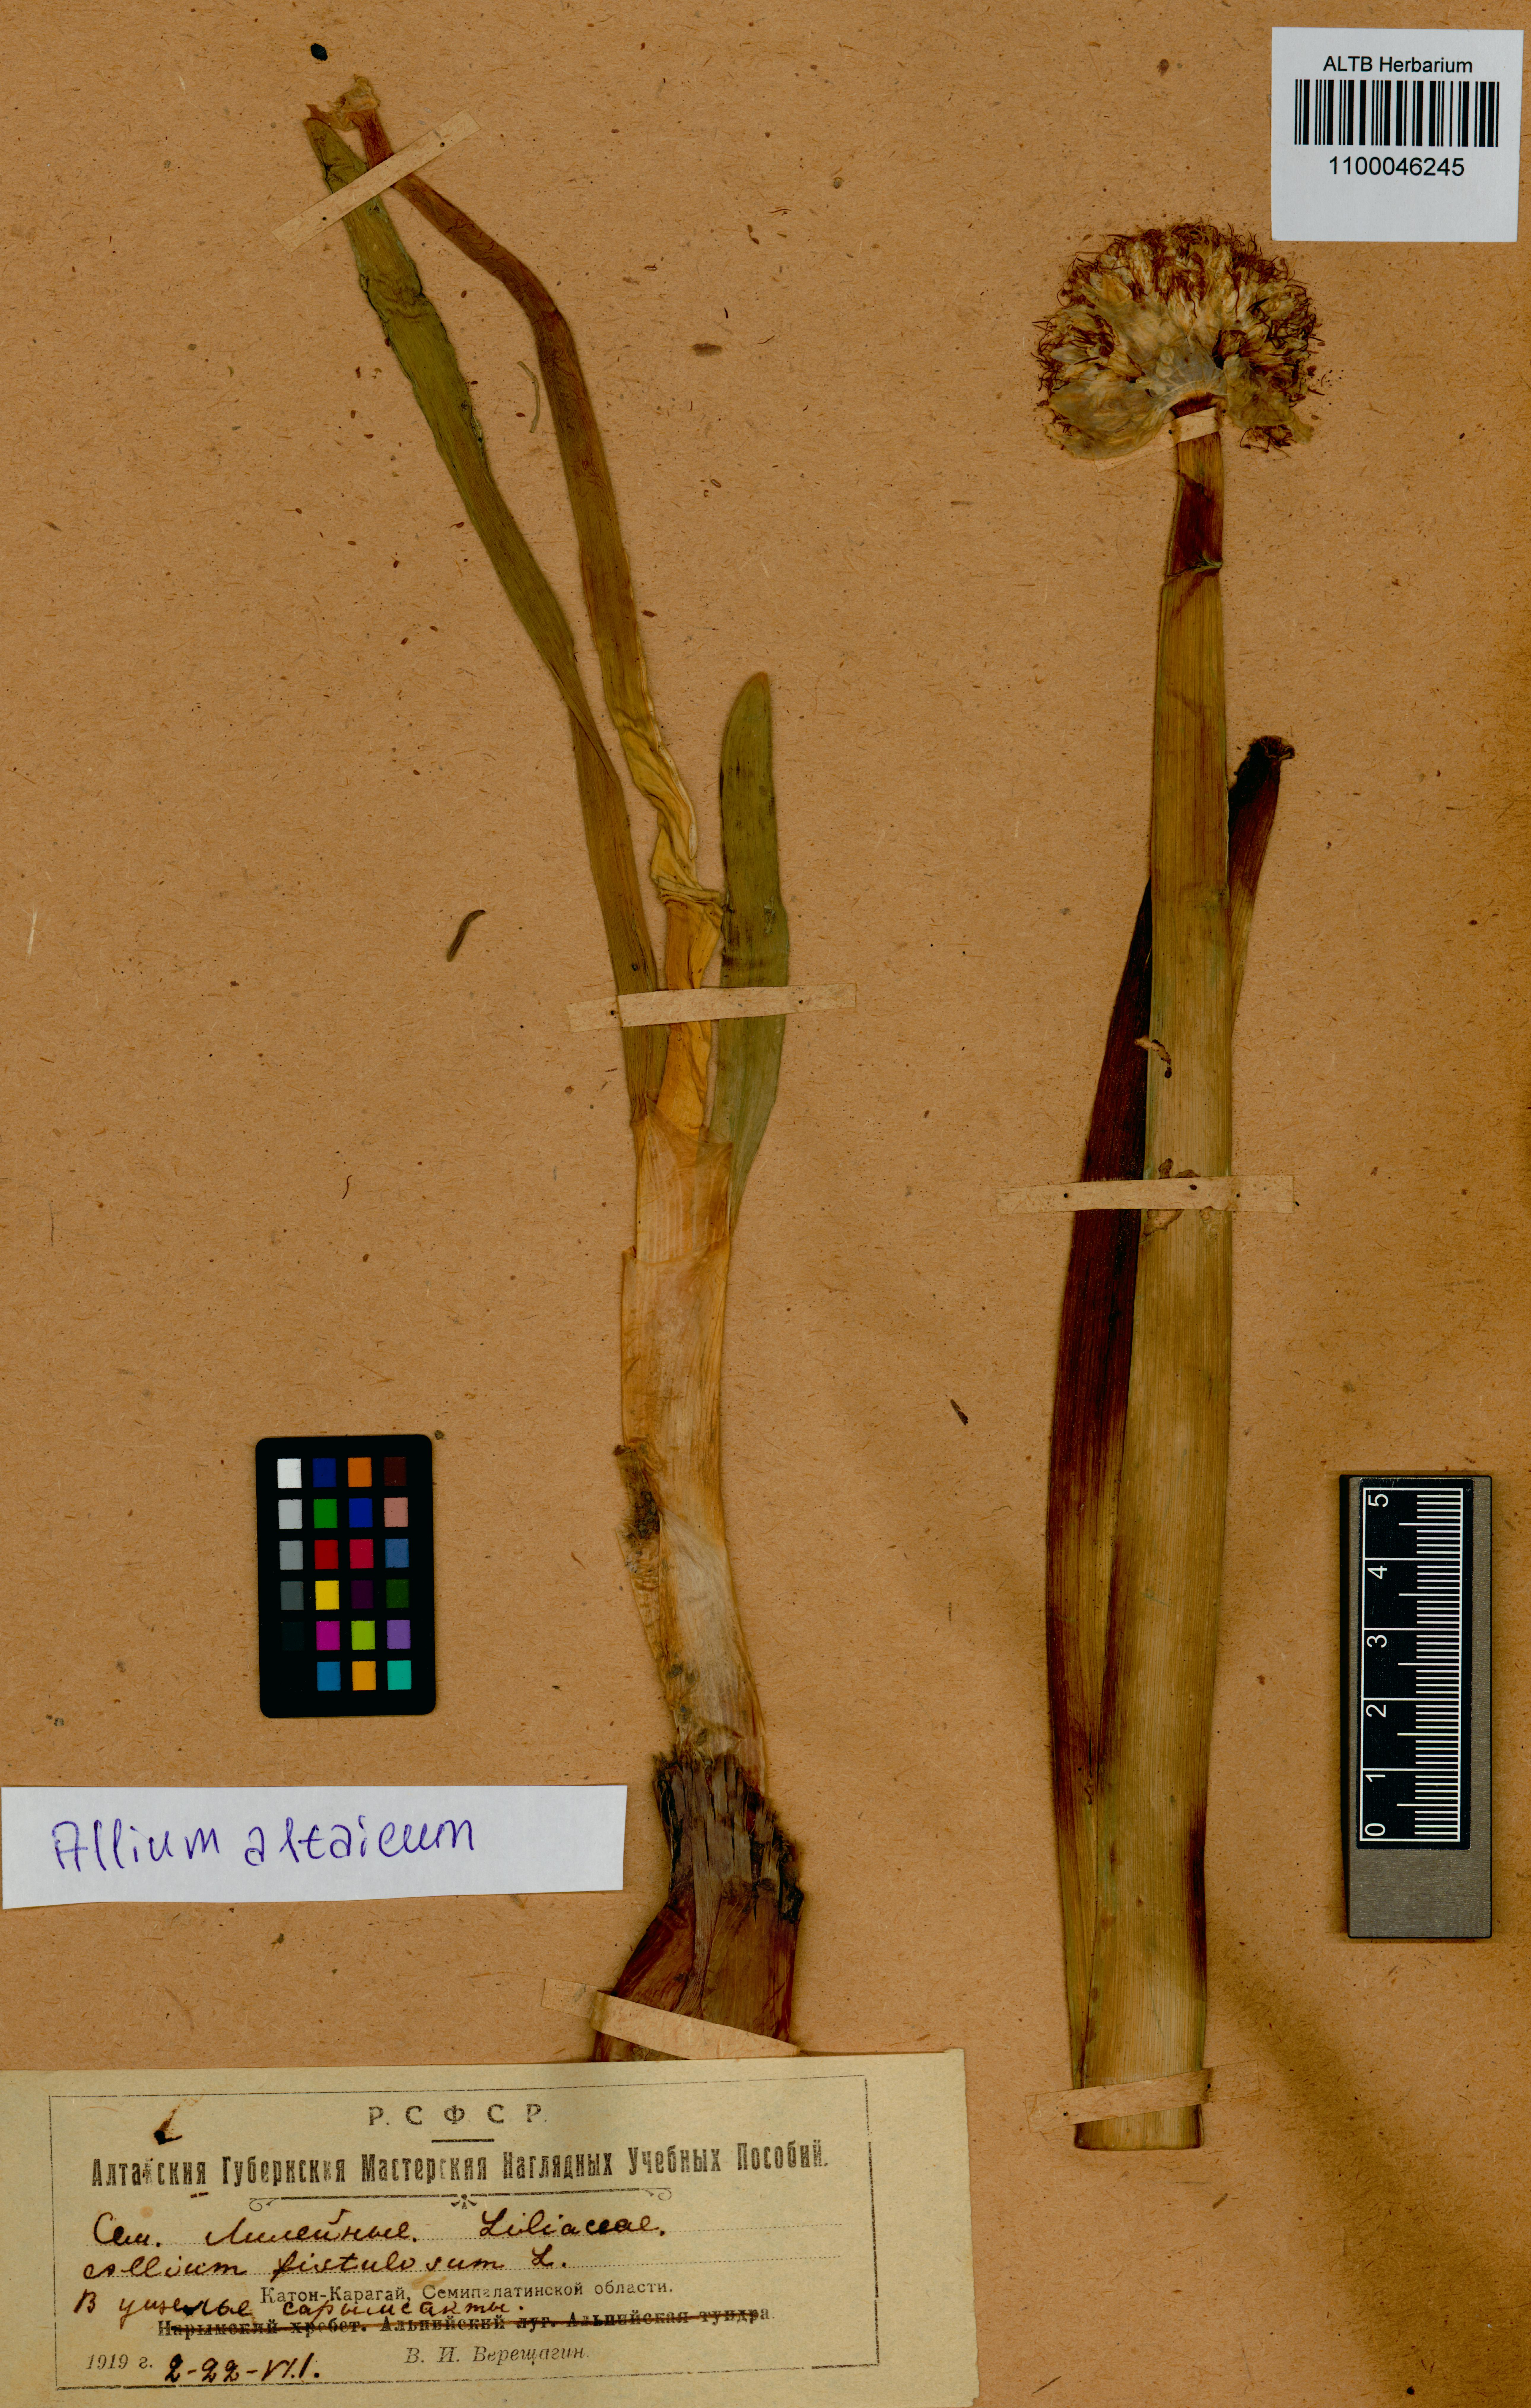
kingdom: Plantae
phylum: Tracheophyta
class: Liliopsida
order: Asparagales
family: Amaryllidaceae
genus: Allium
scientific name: Allium altaicum
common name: Altai onion
